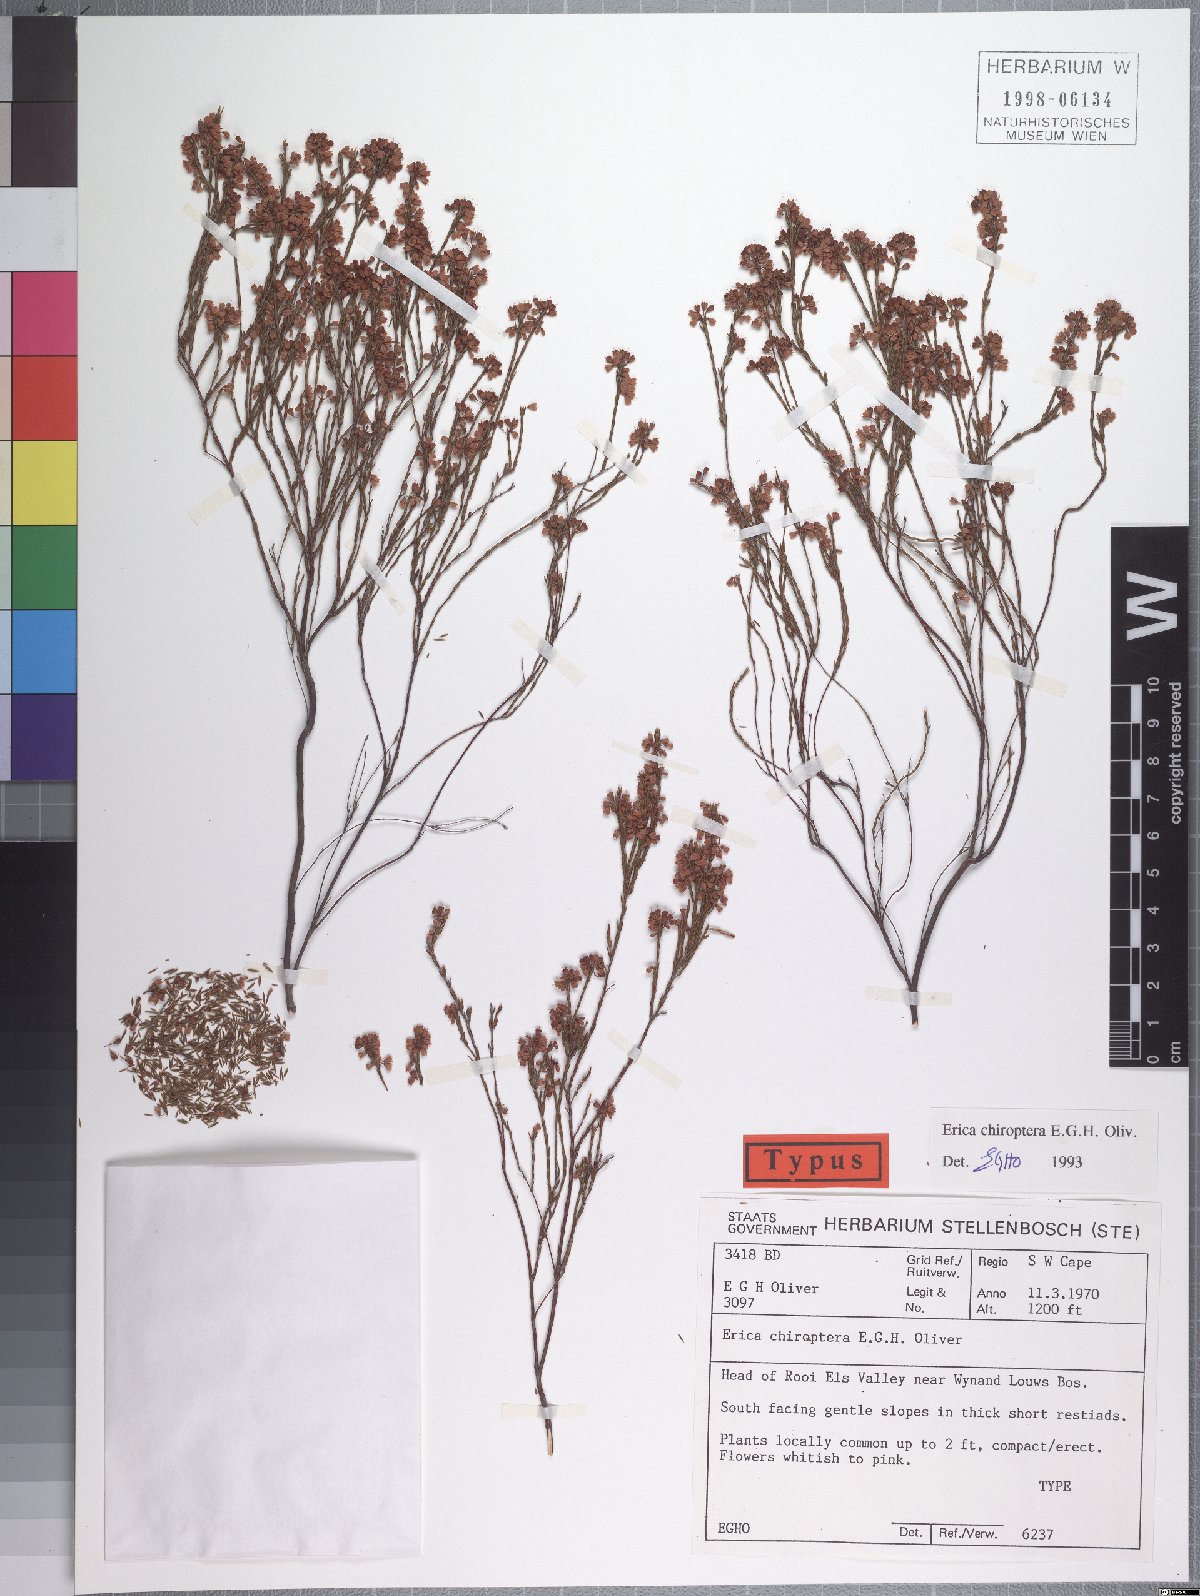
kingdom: Plantae
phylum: Tracheophyta
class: Magnoliopsida
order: Ericales
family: Ericaceae
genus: Erica
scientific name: Erica chiroptera
